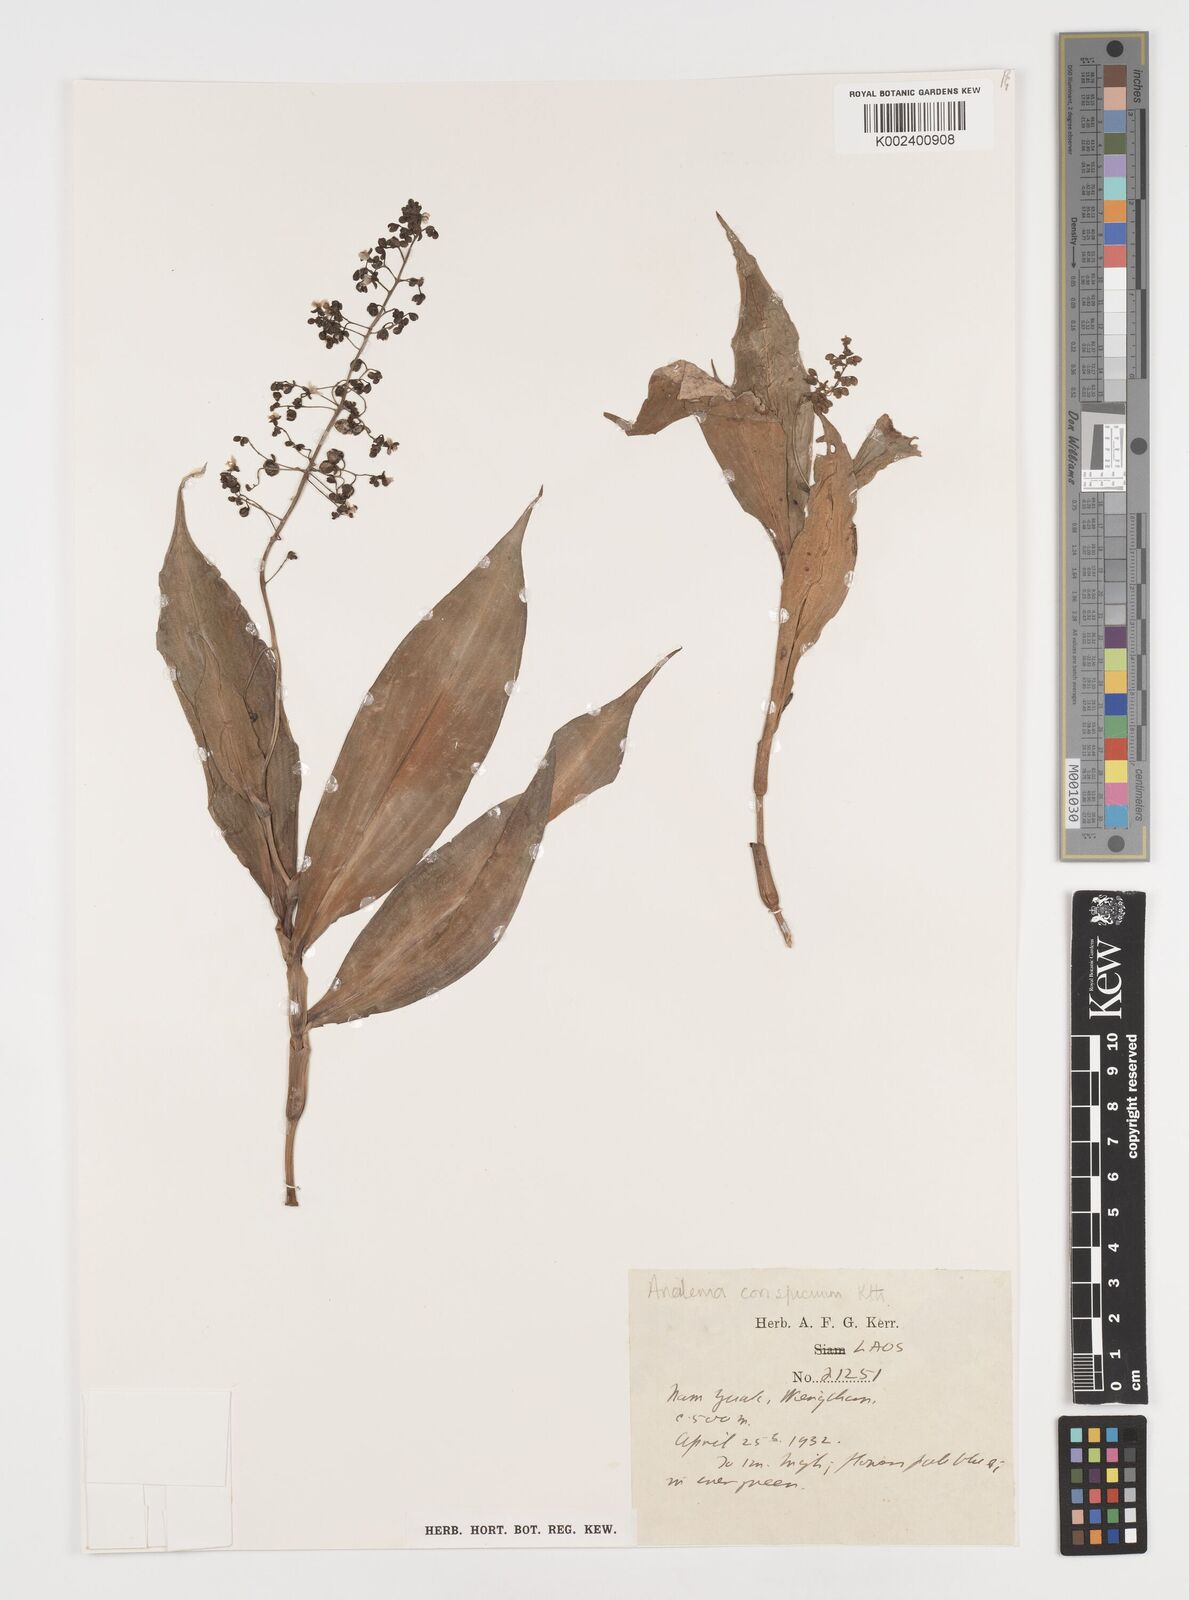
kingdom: Plantae
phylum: Tracheophyta
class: Liliopsida
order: Commelinales
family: Commelinaceae
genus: Dictyospermum
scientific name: Dictyospermum conspicuum
